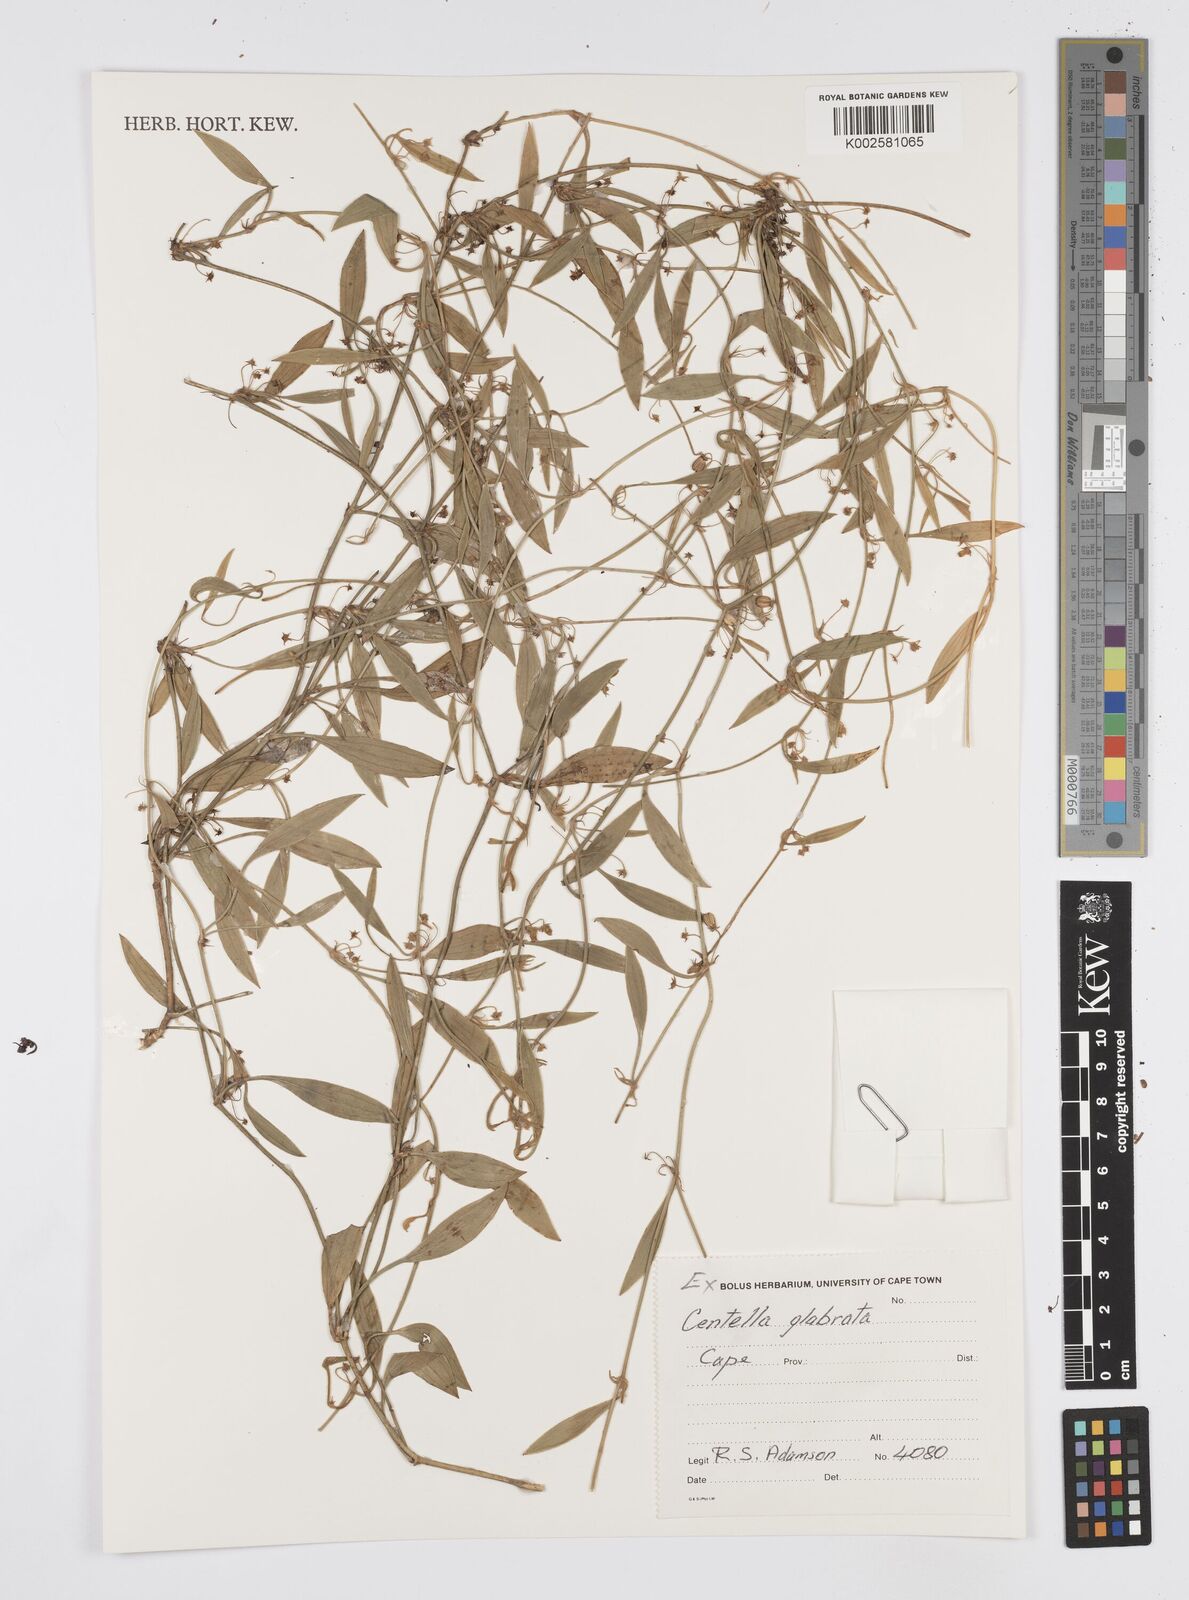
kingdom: Plantae
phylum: Tracheophyta
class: Magnoliopsida
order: Apiales
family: Apiaceae
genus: Centella
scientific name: Centella glabrata
